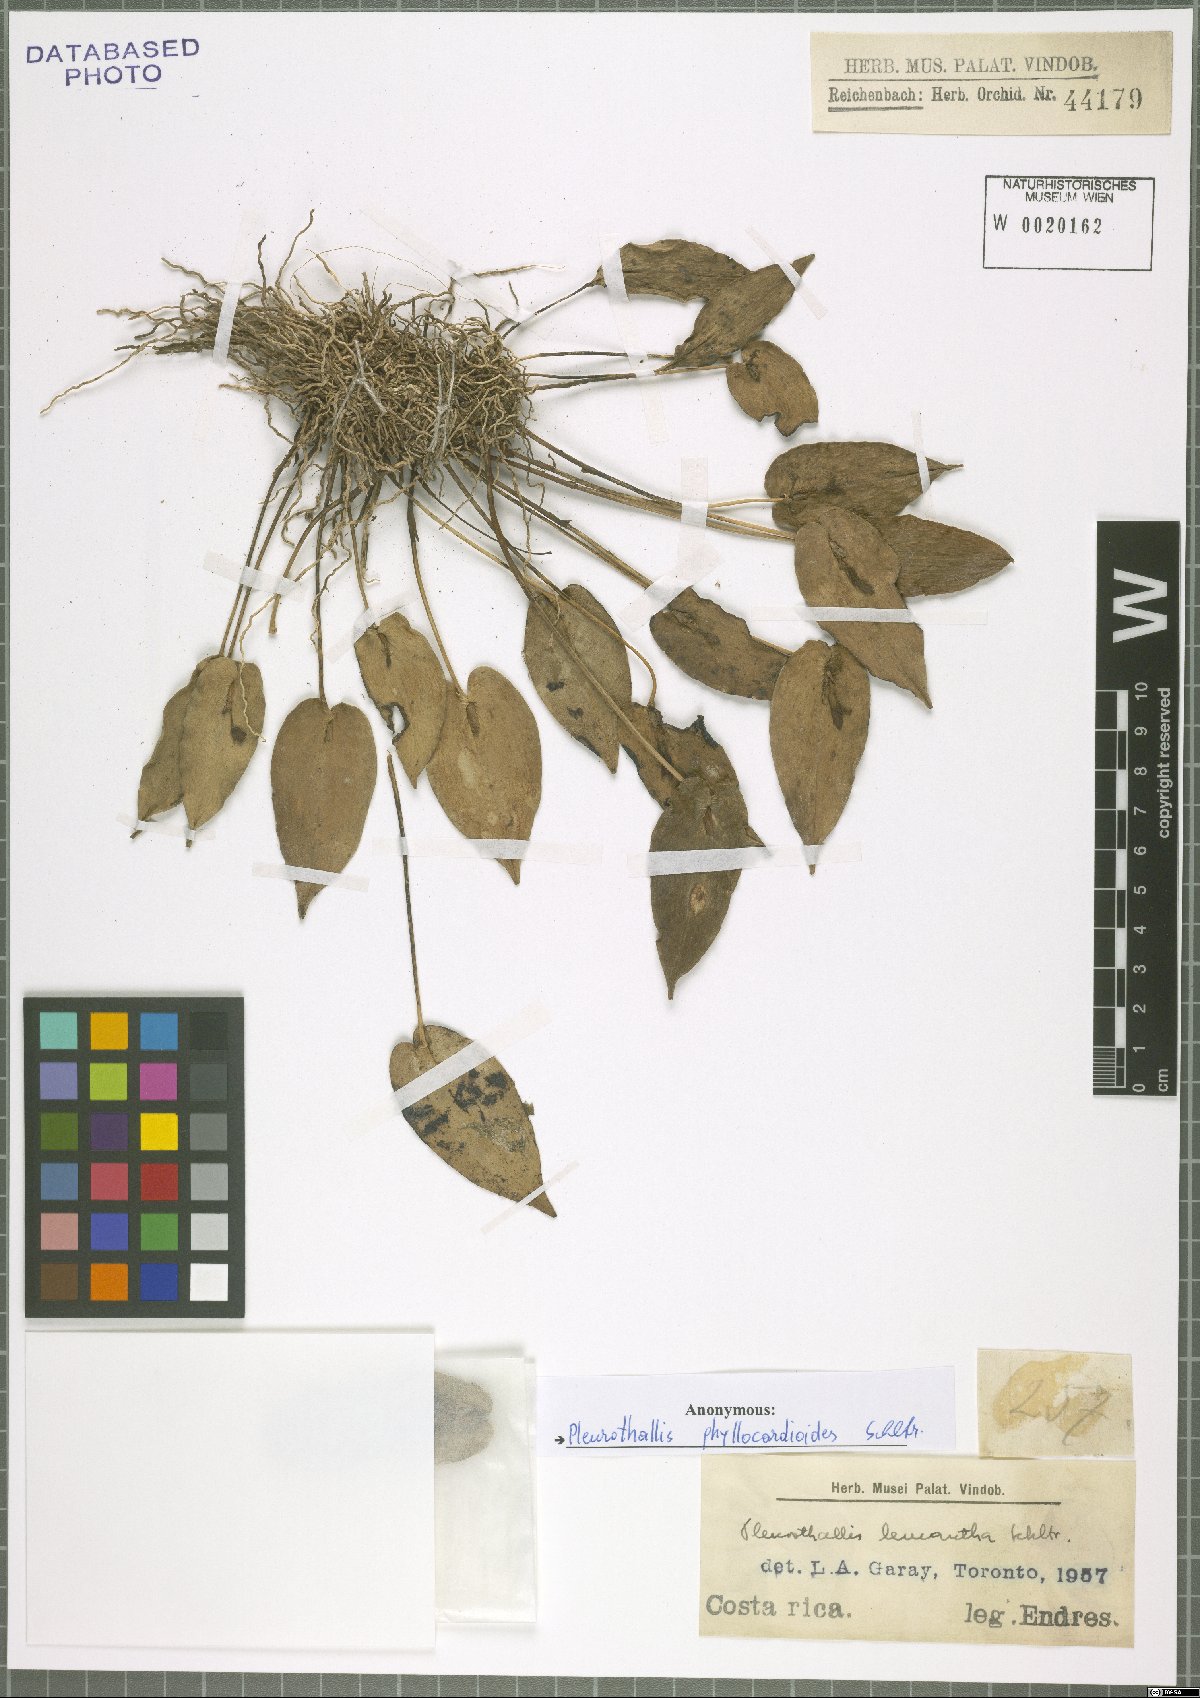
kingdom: Plantae
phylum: Tracheophyta
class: Liliopsida
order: Asparagales
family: Orchidaceae
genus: Pleurothallis
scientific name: Pleurothallis phyllocardioides
